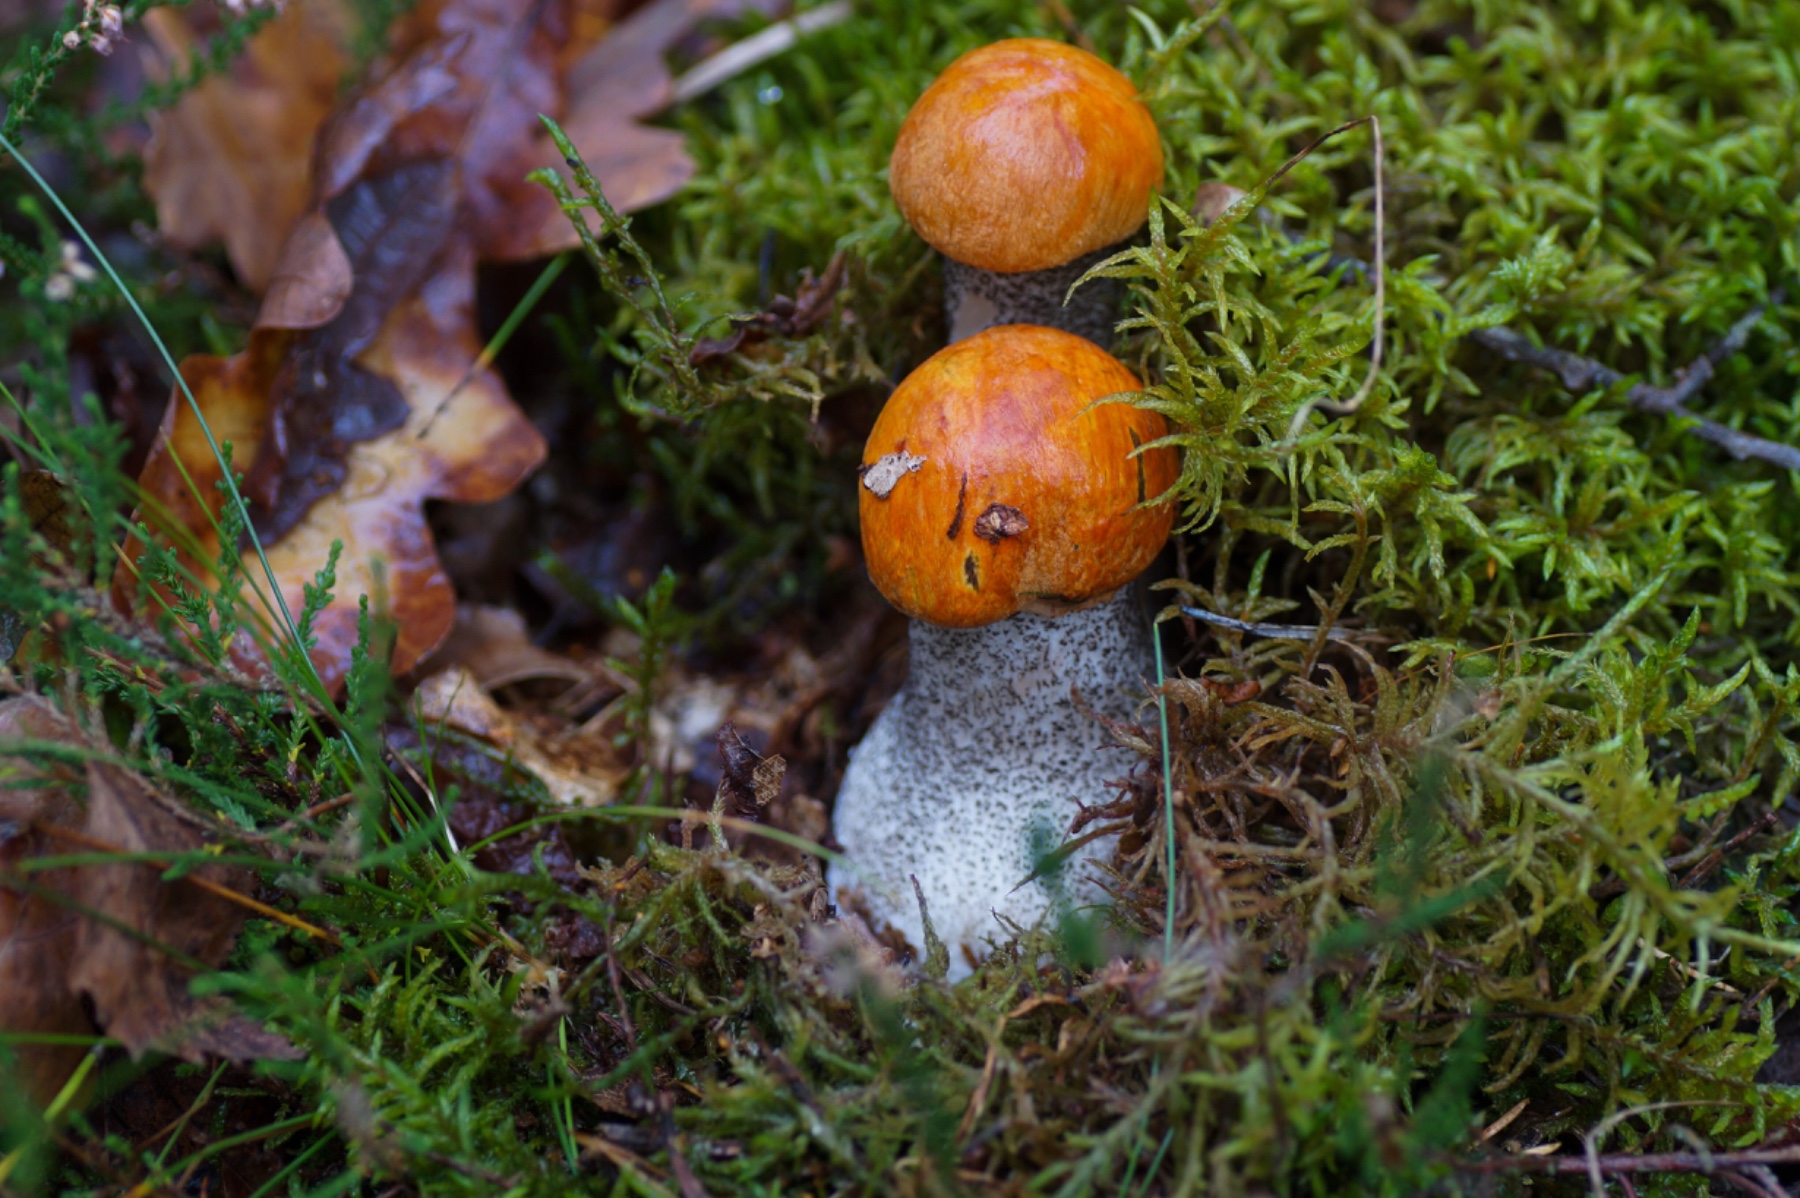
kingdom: Fungi
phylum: Basidiomycota
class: Agaricomycetes
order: Boletales
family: Boletaceae
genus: Leccinum
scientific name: Leccinum versipelle
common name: orange skælrørhat
